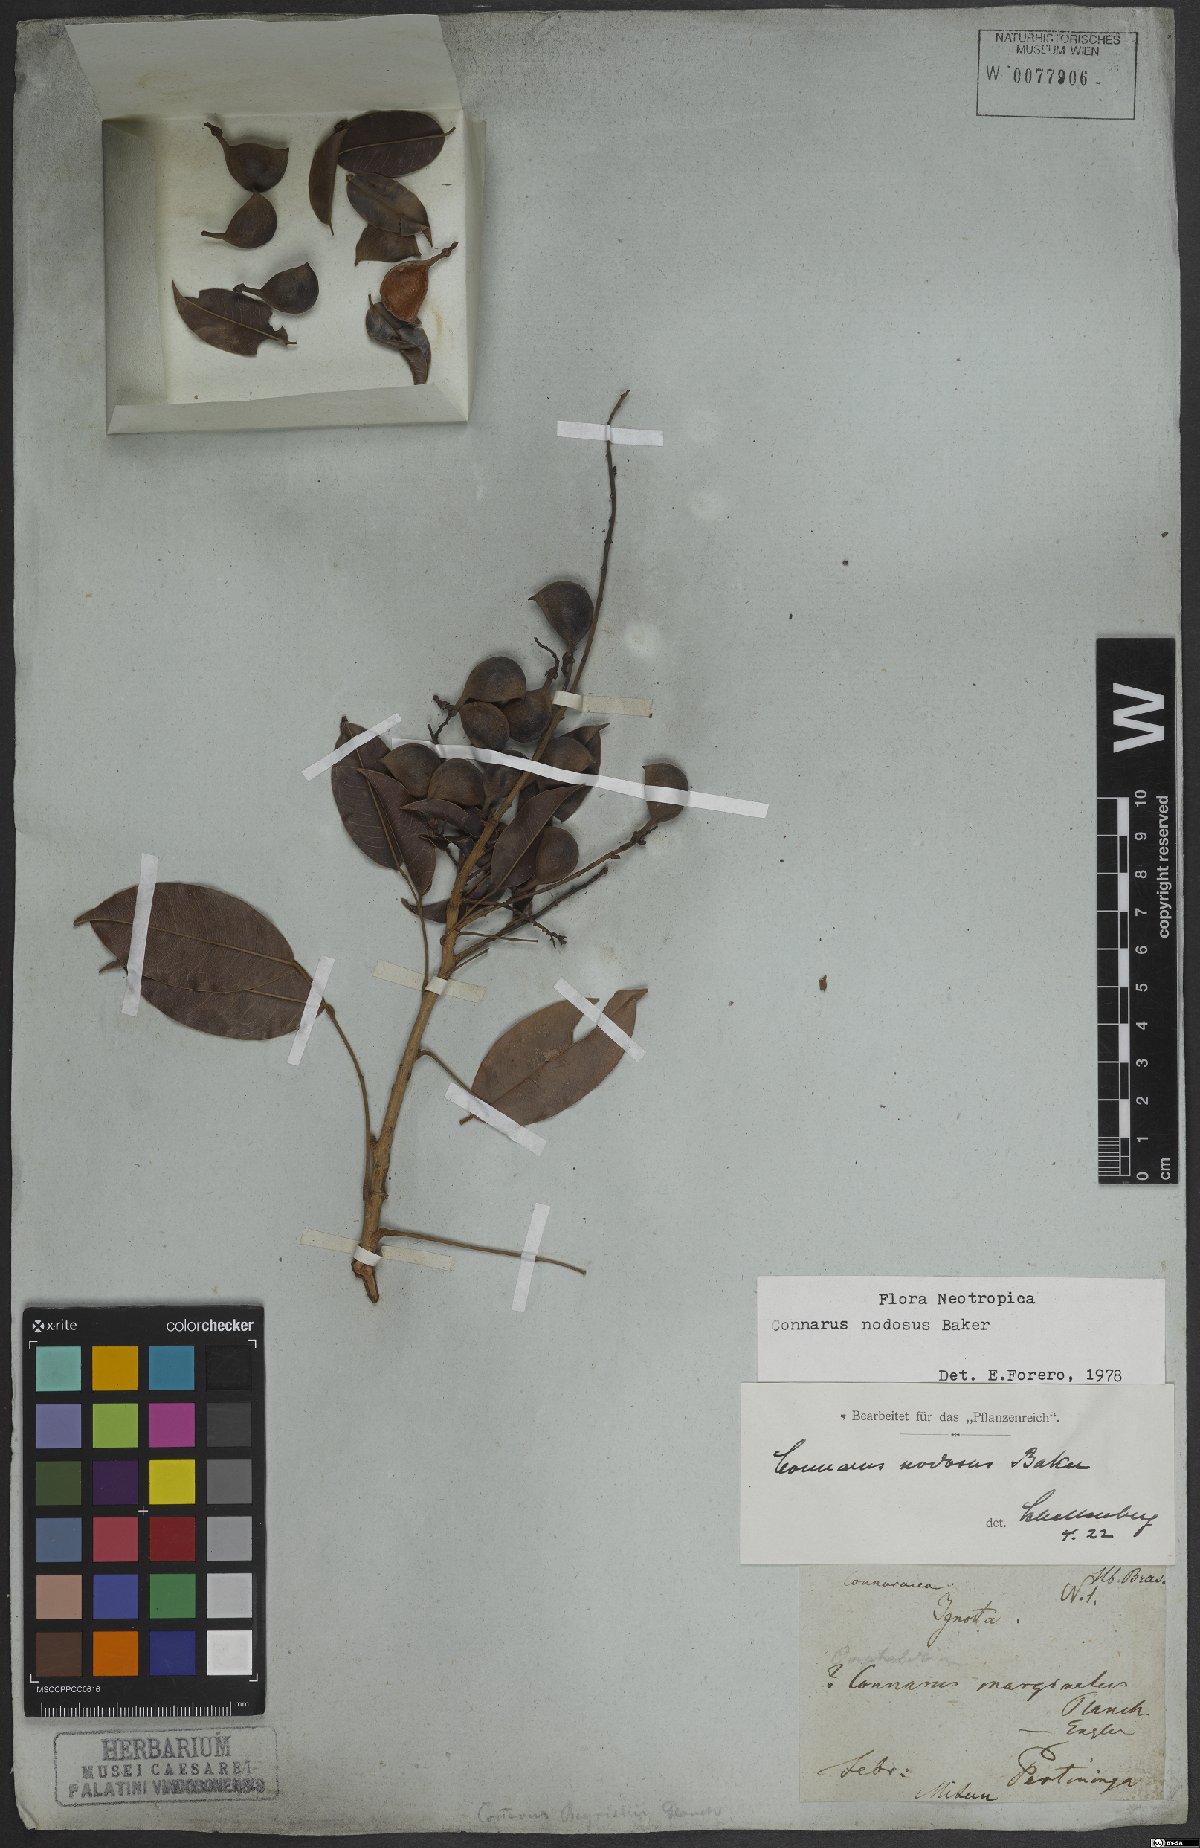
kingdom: Plantae
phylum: Tracheophyta
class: Magnoliopsida
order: Oxalidales
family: Connaraceae
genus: Connarus
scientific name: Connarus nodosus
